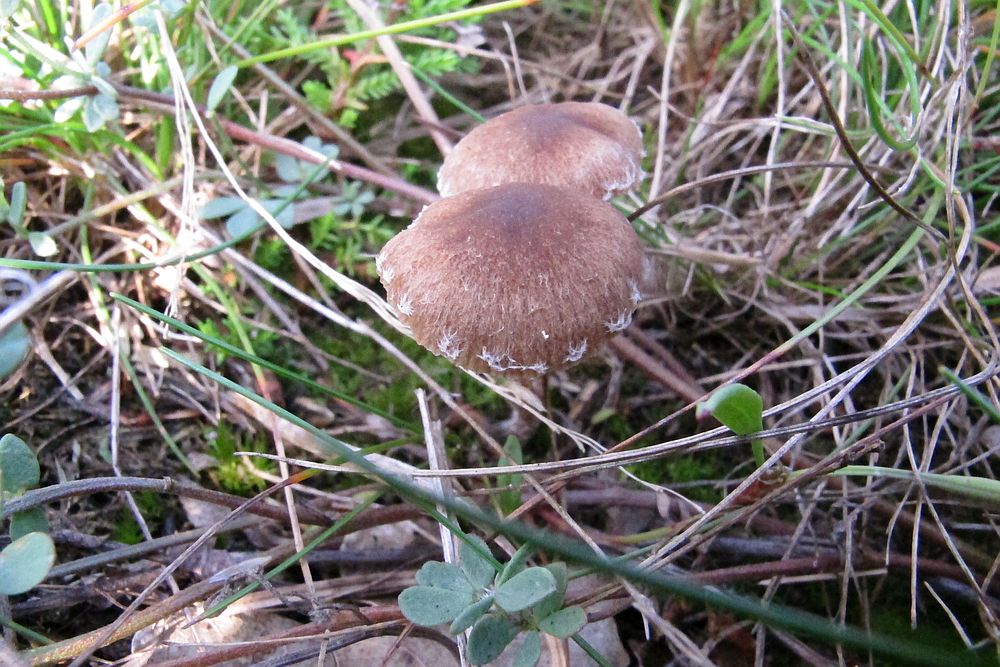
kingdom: Fungi
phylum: Basidiomycota
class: Agaricomycetes
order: Agaricales
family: Psathyrellaceae
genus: Psathyrella
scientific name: Psathyrella flexispora
